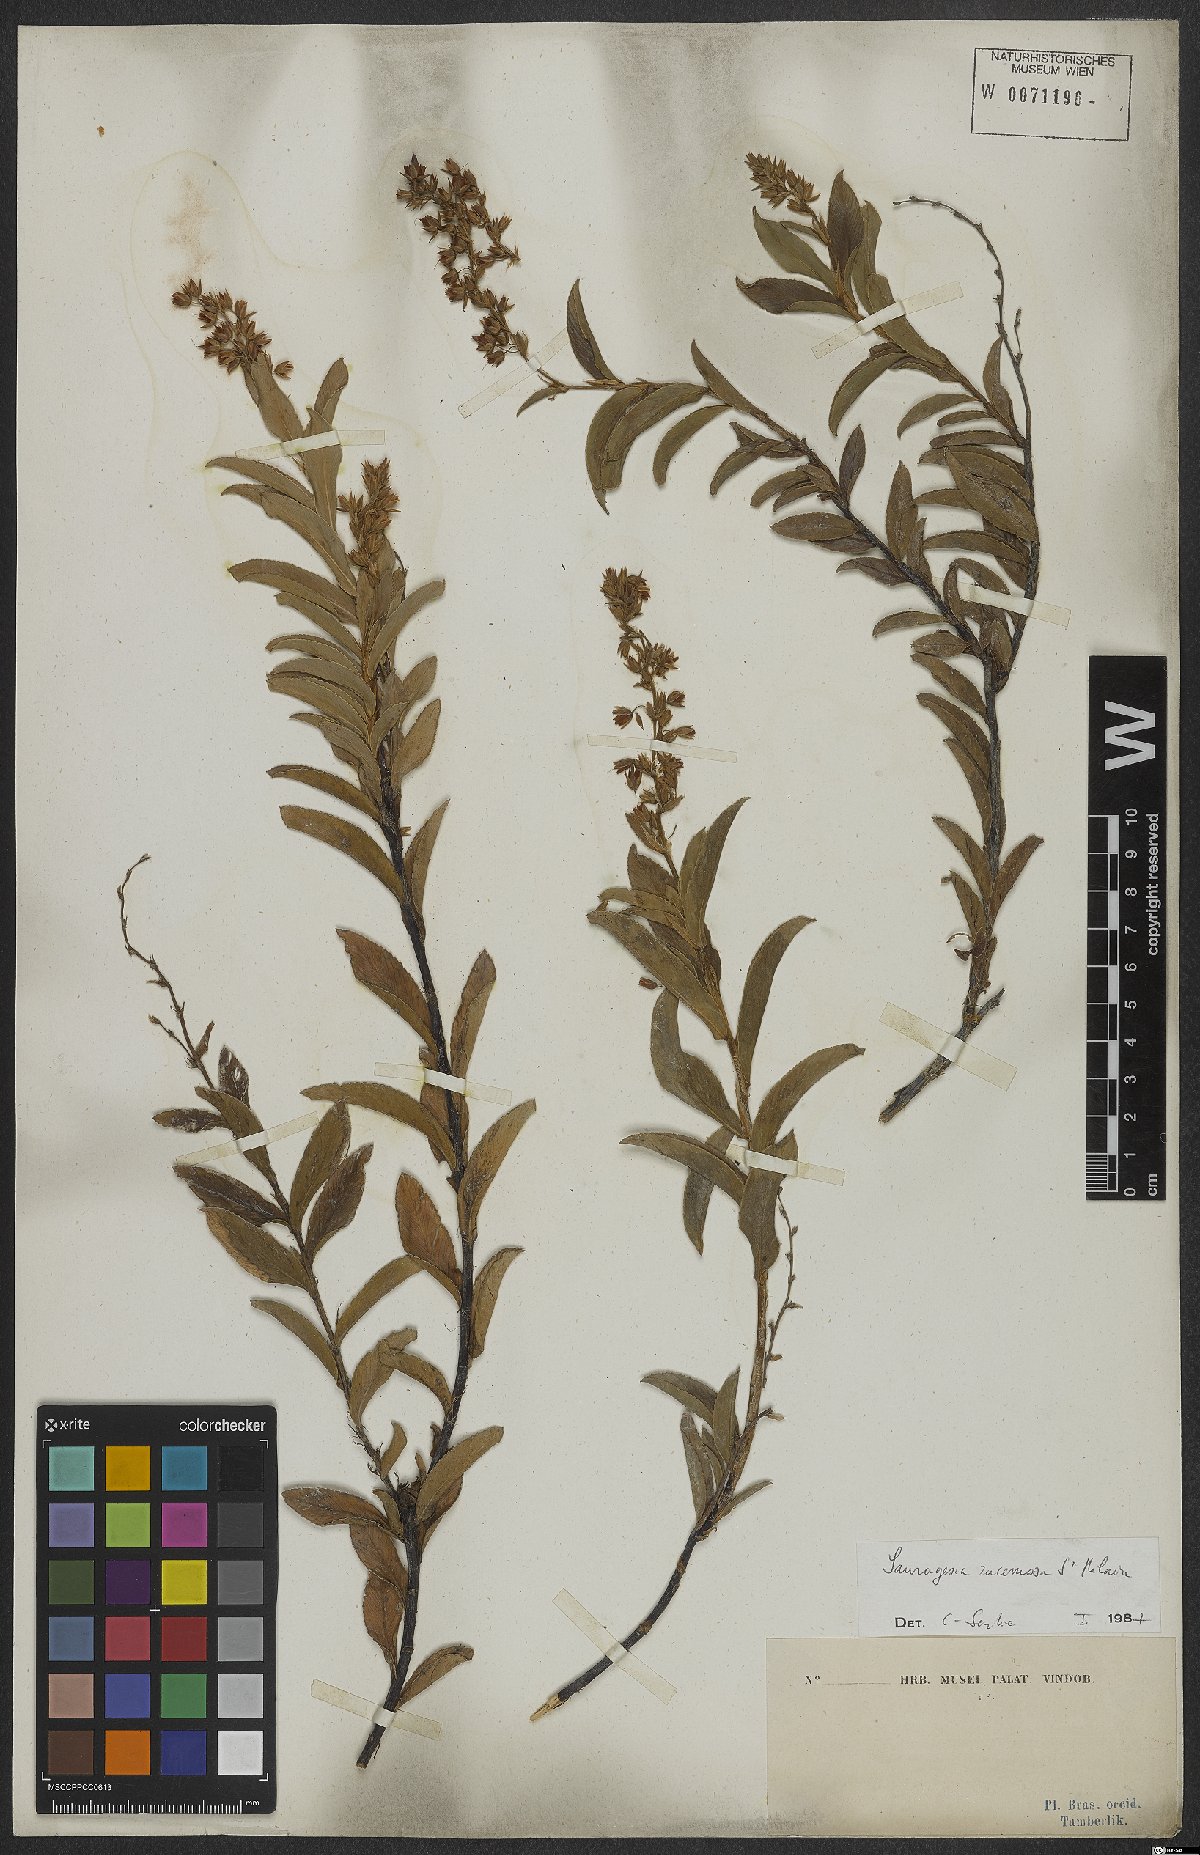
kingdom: Plantae
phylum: Tracheophyta
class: Magnoliopsida
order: Malpighiales
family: Ochnaceae
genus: Sauvagesia
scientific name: Sauvagesia racemosa
